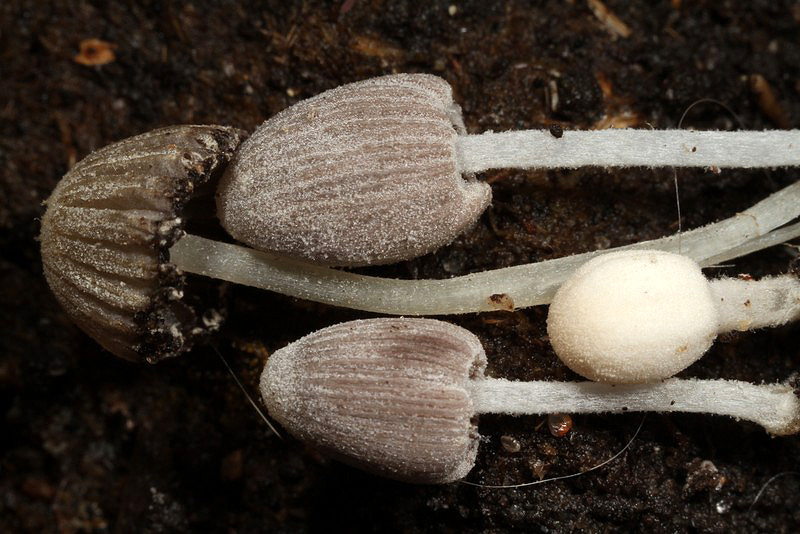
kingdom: Fungi
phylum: Basidiomycota
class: Agaricomycetes
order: Agaricales
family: Psathyrellaceae
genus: Coprinopsis
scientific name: Coprinopsis candidata
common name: hvidklædt blækhat
